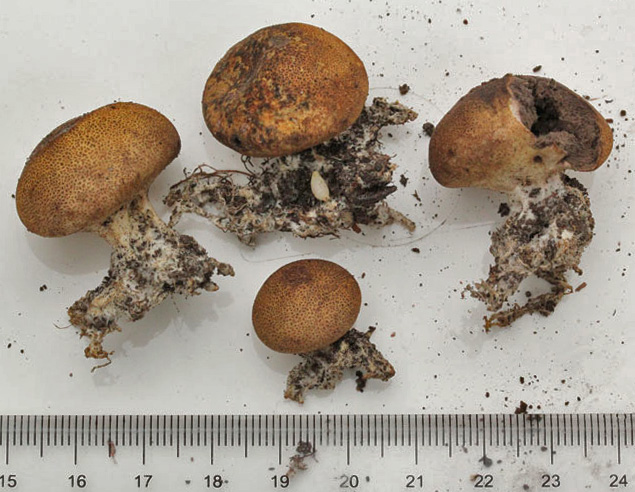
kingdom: Fungi
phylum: Basidiomycota
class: Agaricomycetes
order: Boletales
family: Sclerodermataceae
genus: Scleroderma
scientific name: Scleroderma areolatum
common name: plettet bruskbold
